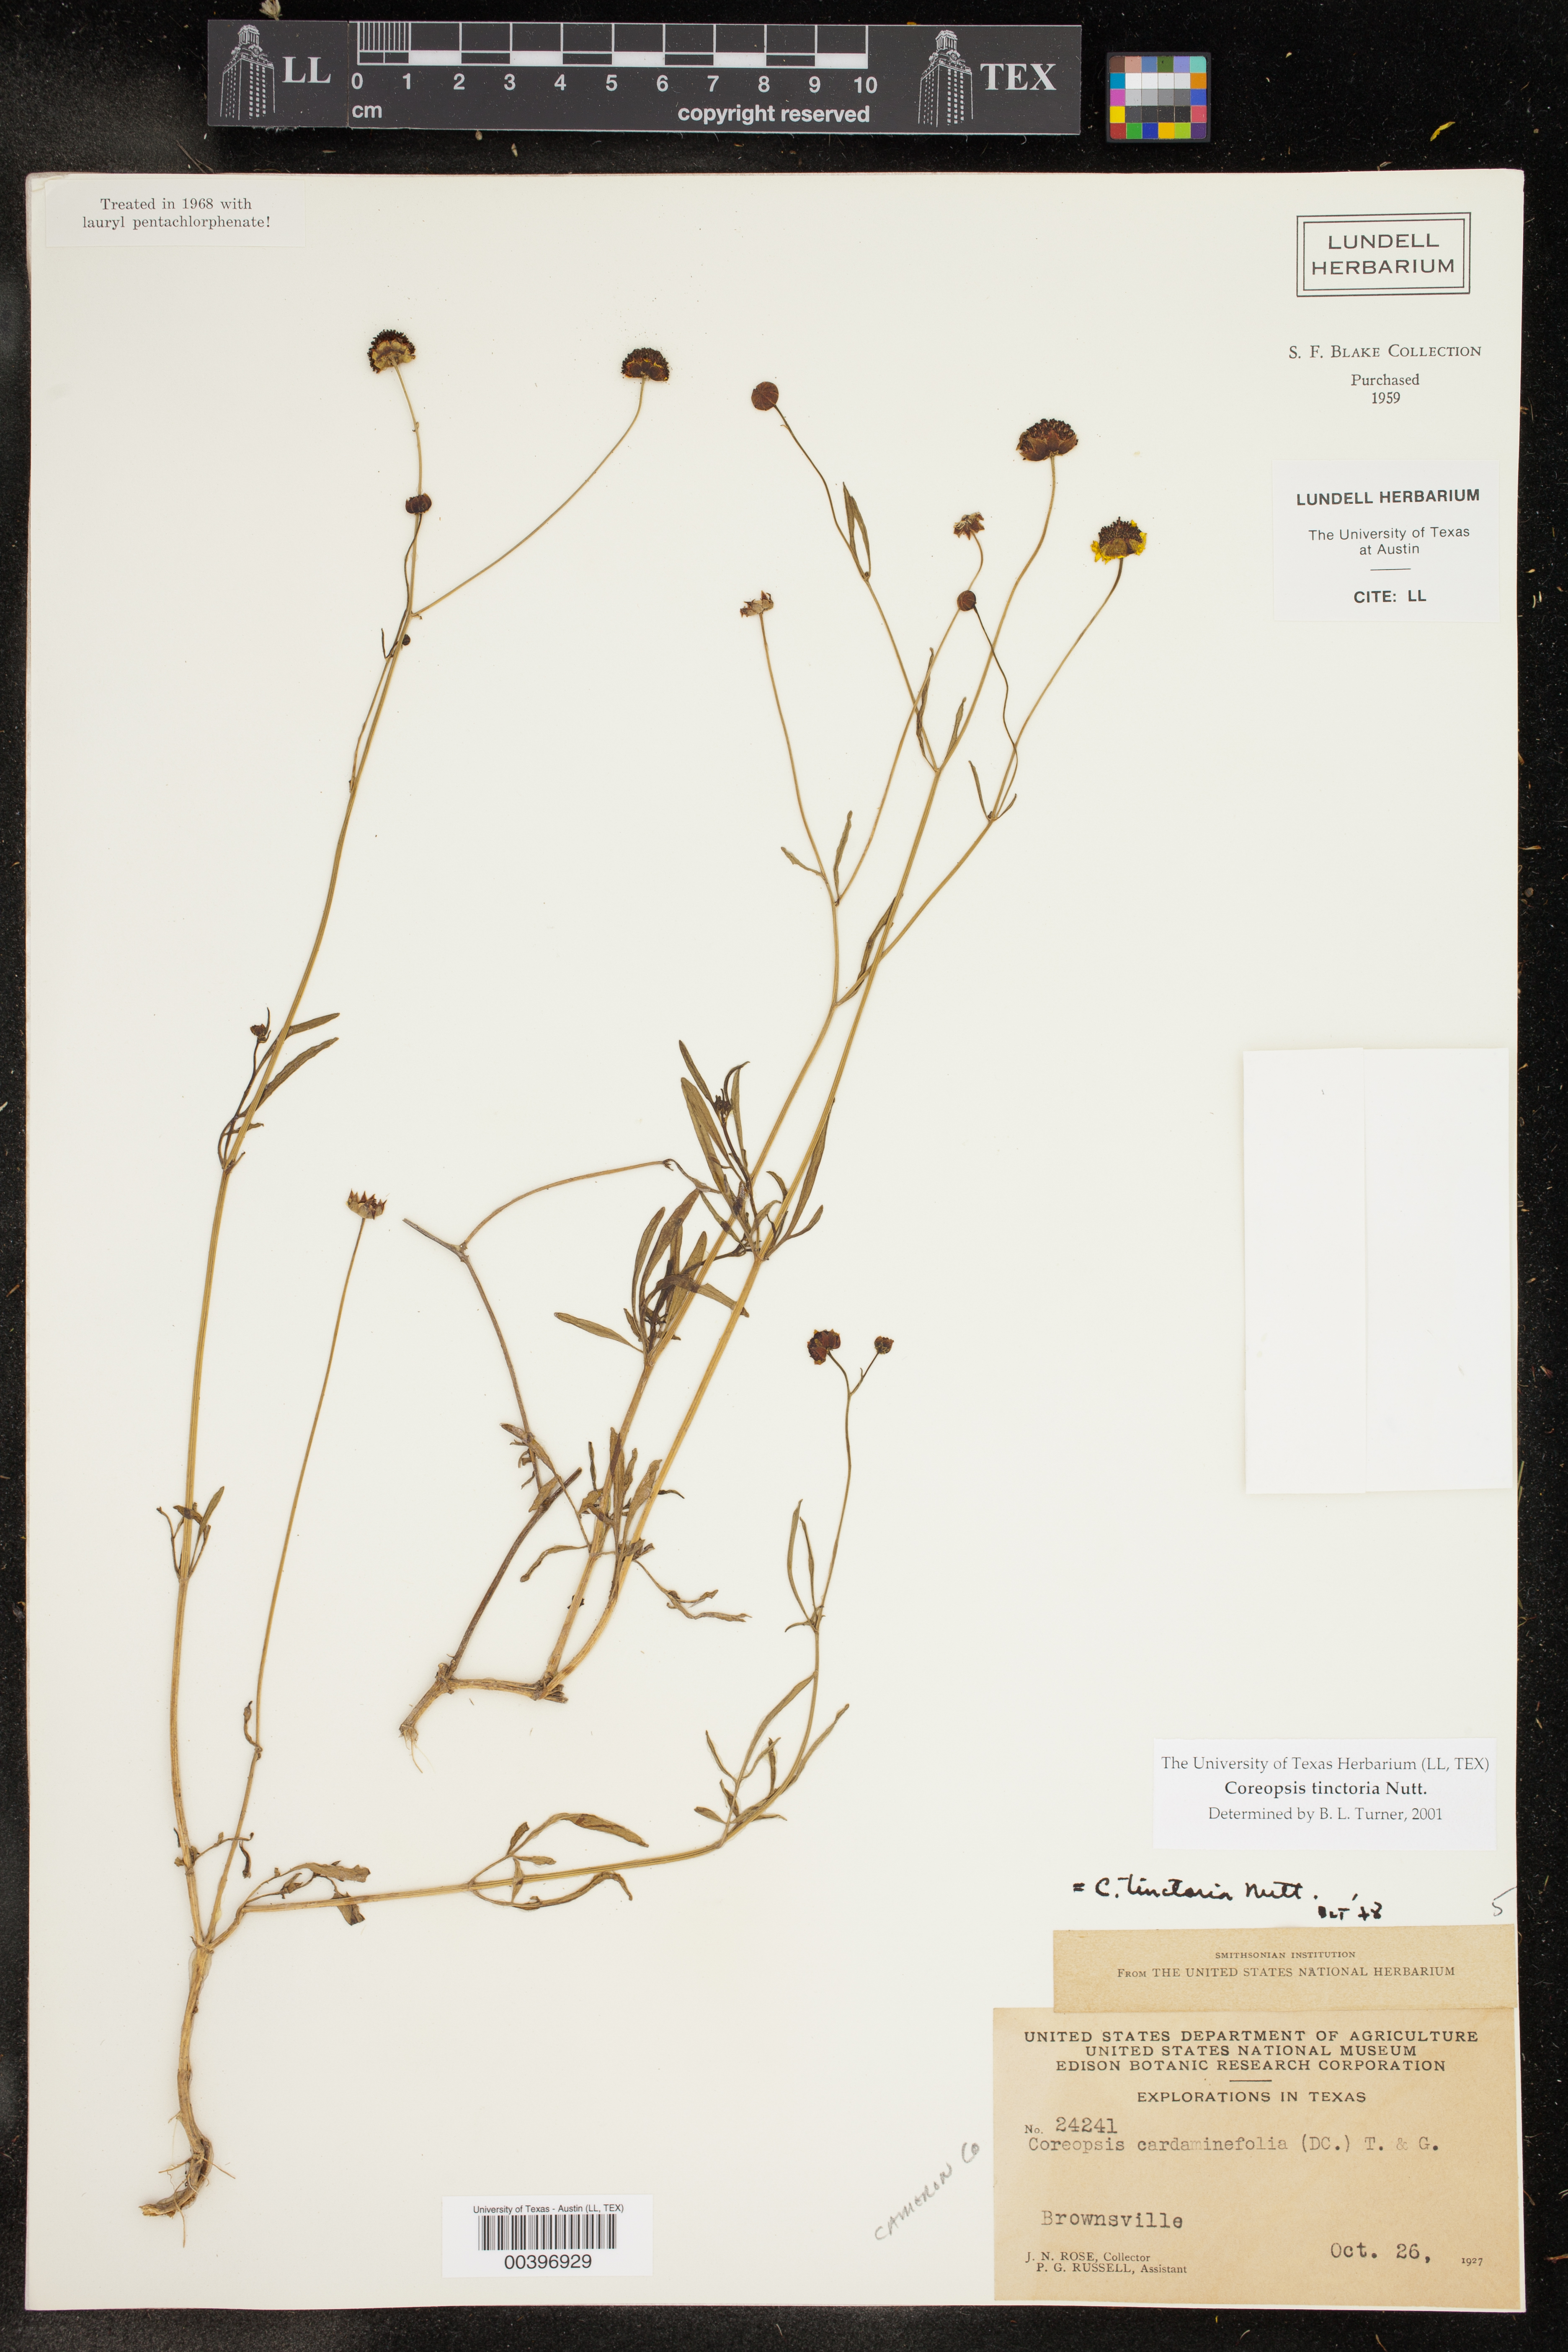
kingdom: Plantae
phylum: Tracheophyta
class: Magnoliopsida
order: Asterales
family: Asteraceae
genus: Coreopsis
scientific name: Coreopsis tinctoria
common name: Garden tickseed
